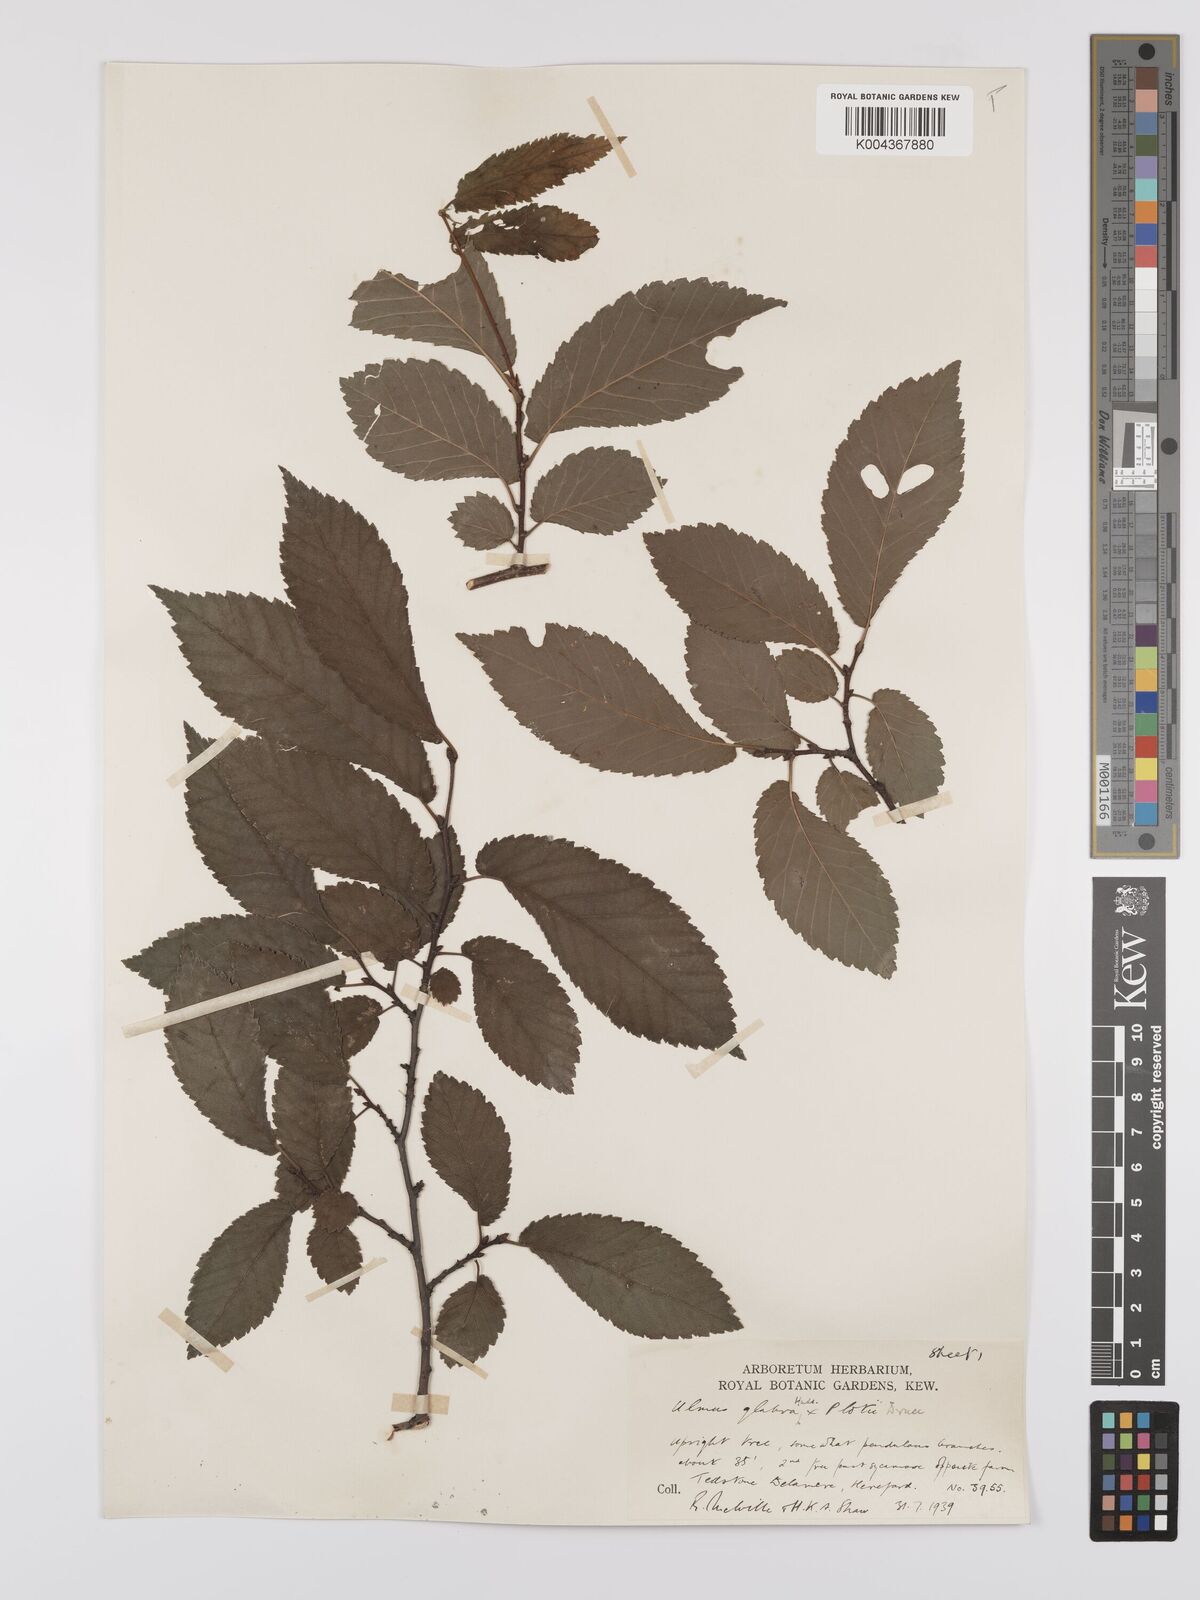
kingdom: Plantae
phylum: Tracheophyta
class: Magnoliopsida
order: Rosales
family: Ulmaceae
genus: Ulmus
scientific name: Ulmus
